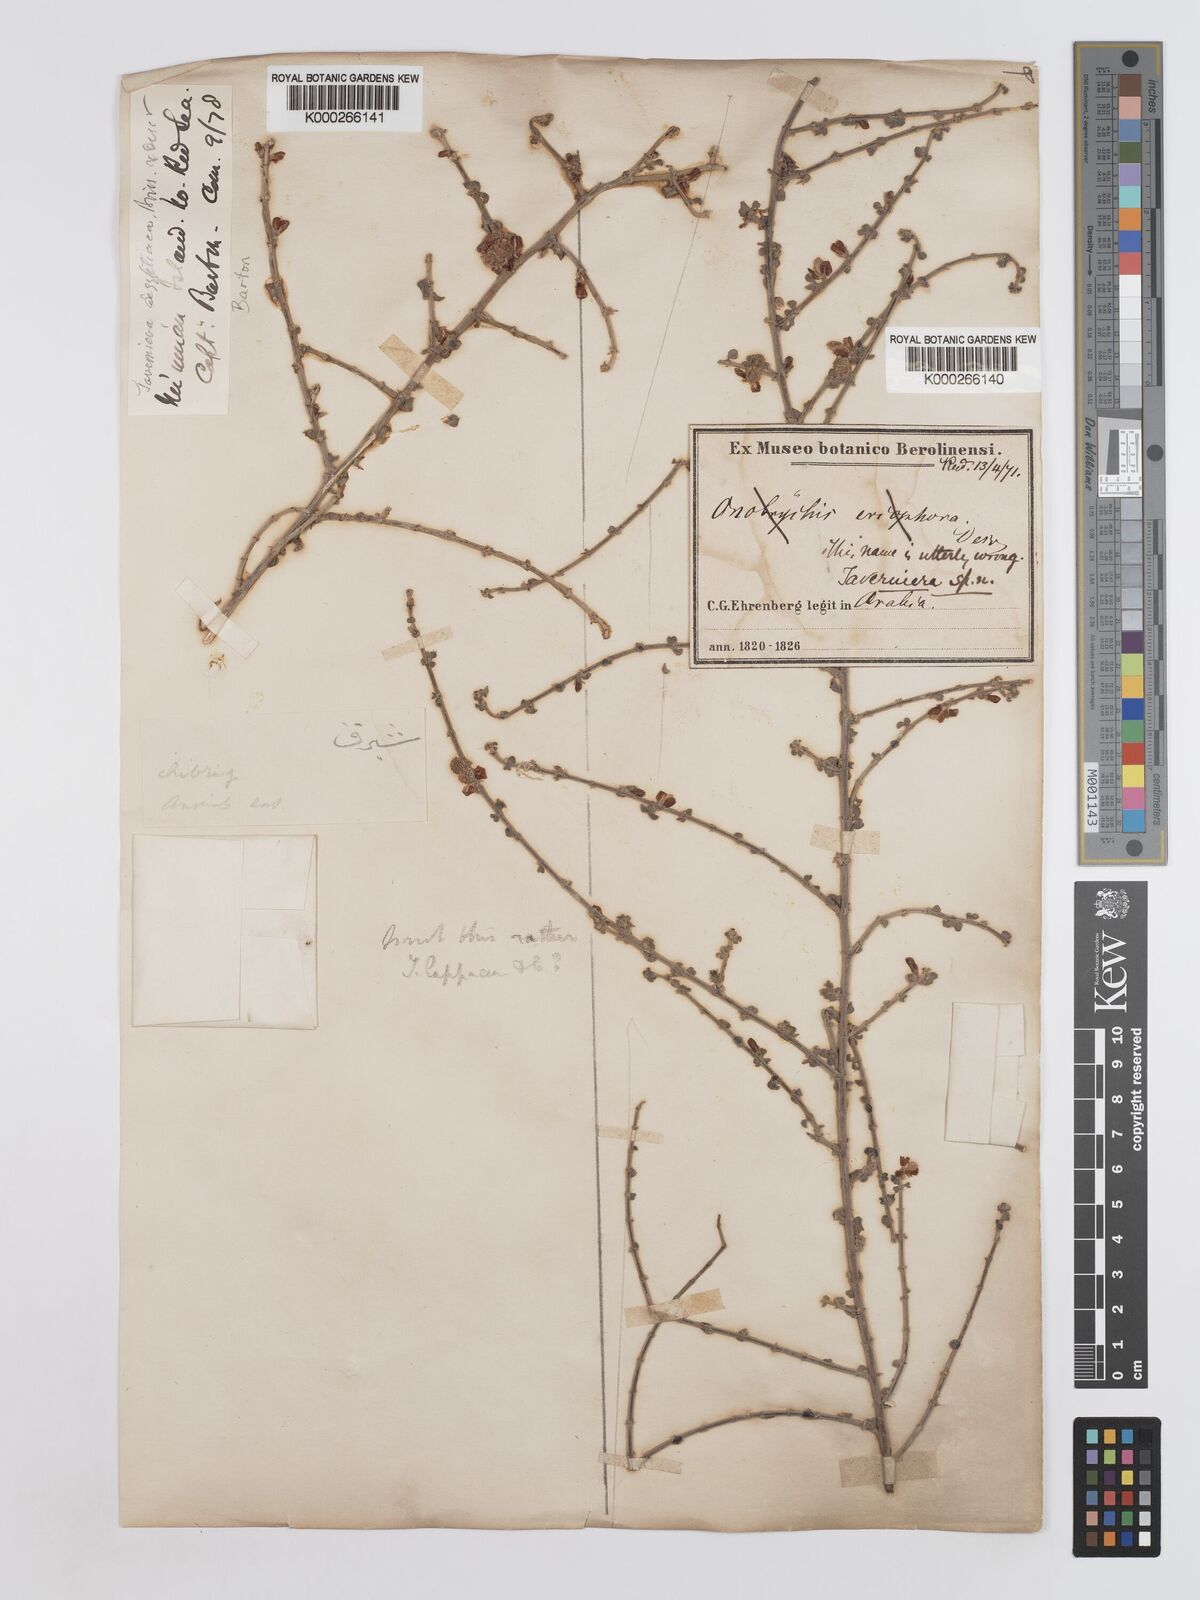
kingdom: Plantae
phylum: Tracheophyta
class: Magnoliopsida
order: Fabales
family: Fabaceae
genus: Taverniera
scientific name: Taverniera lappacea
